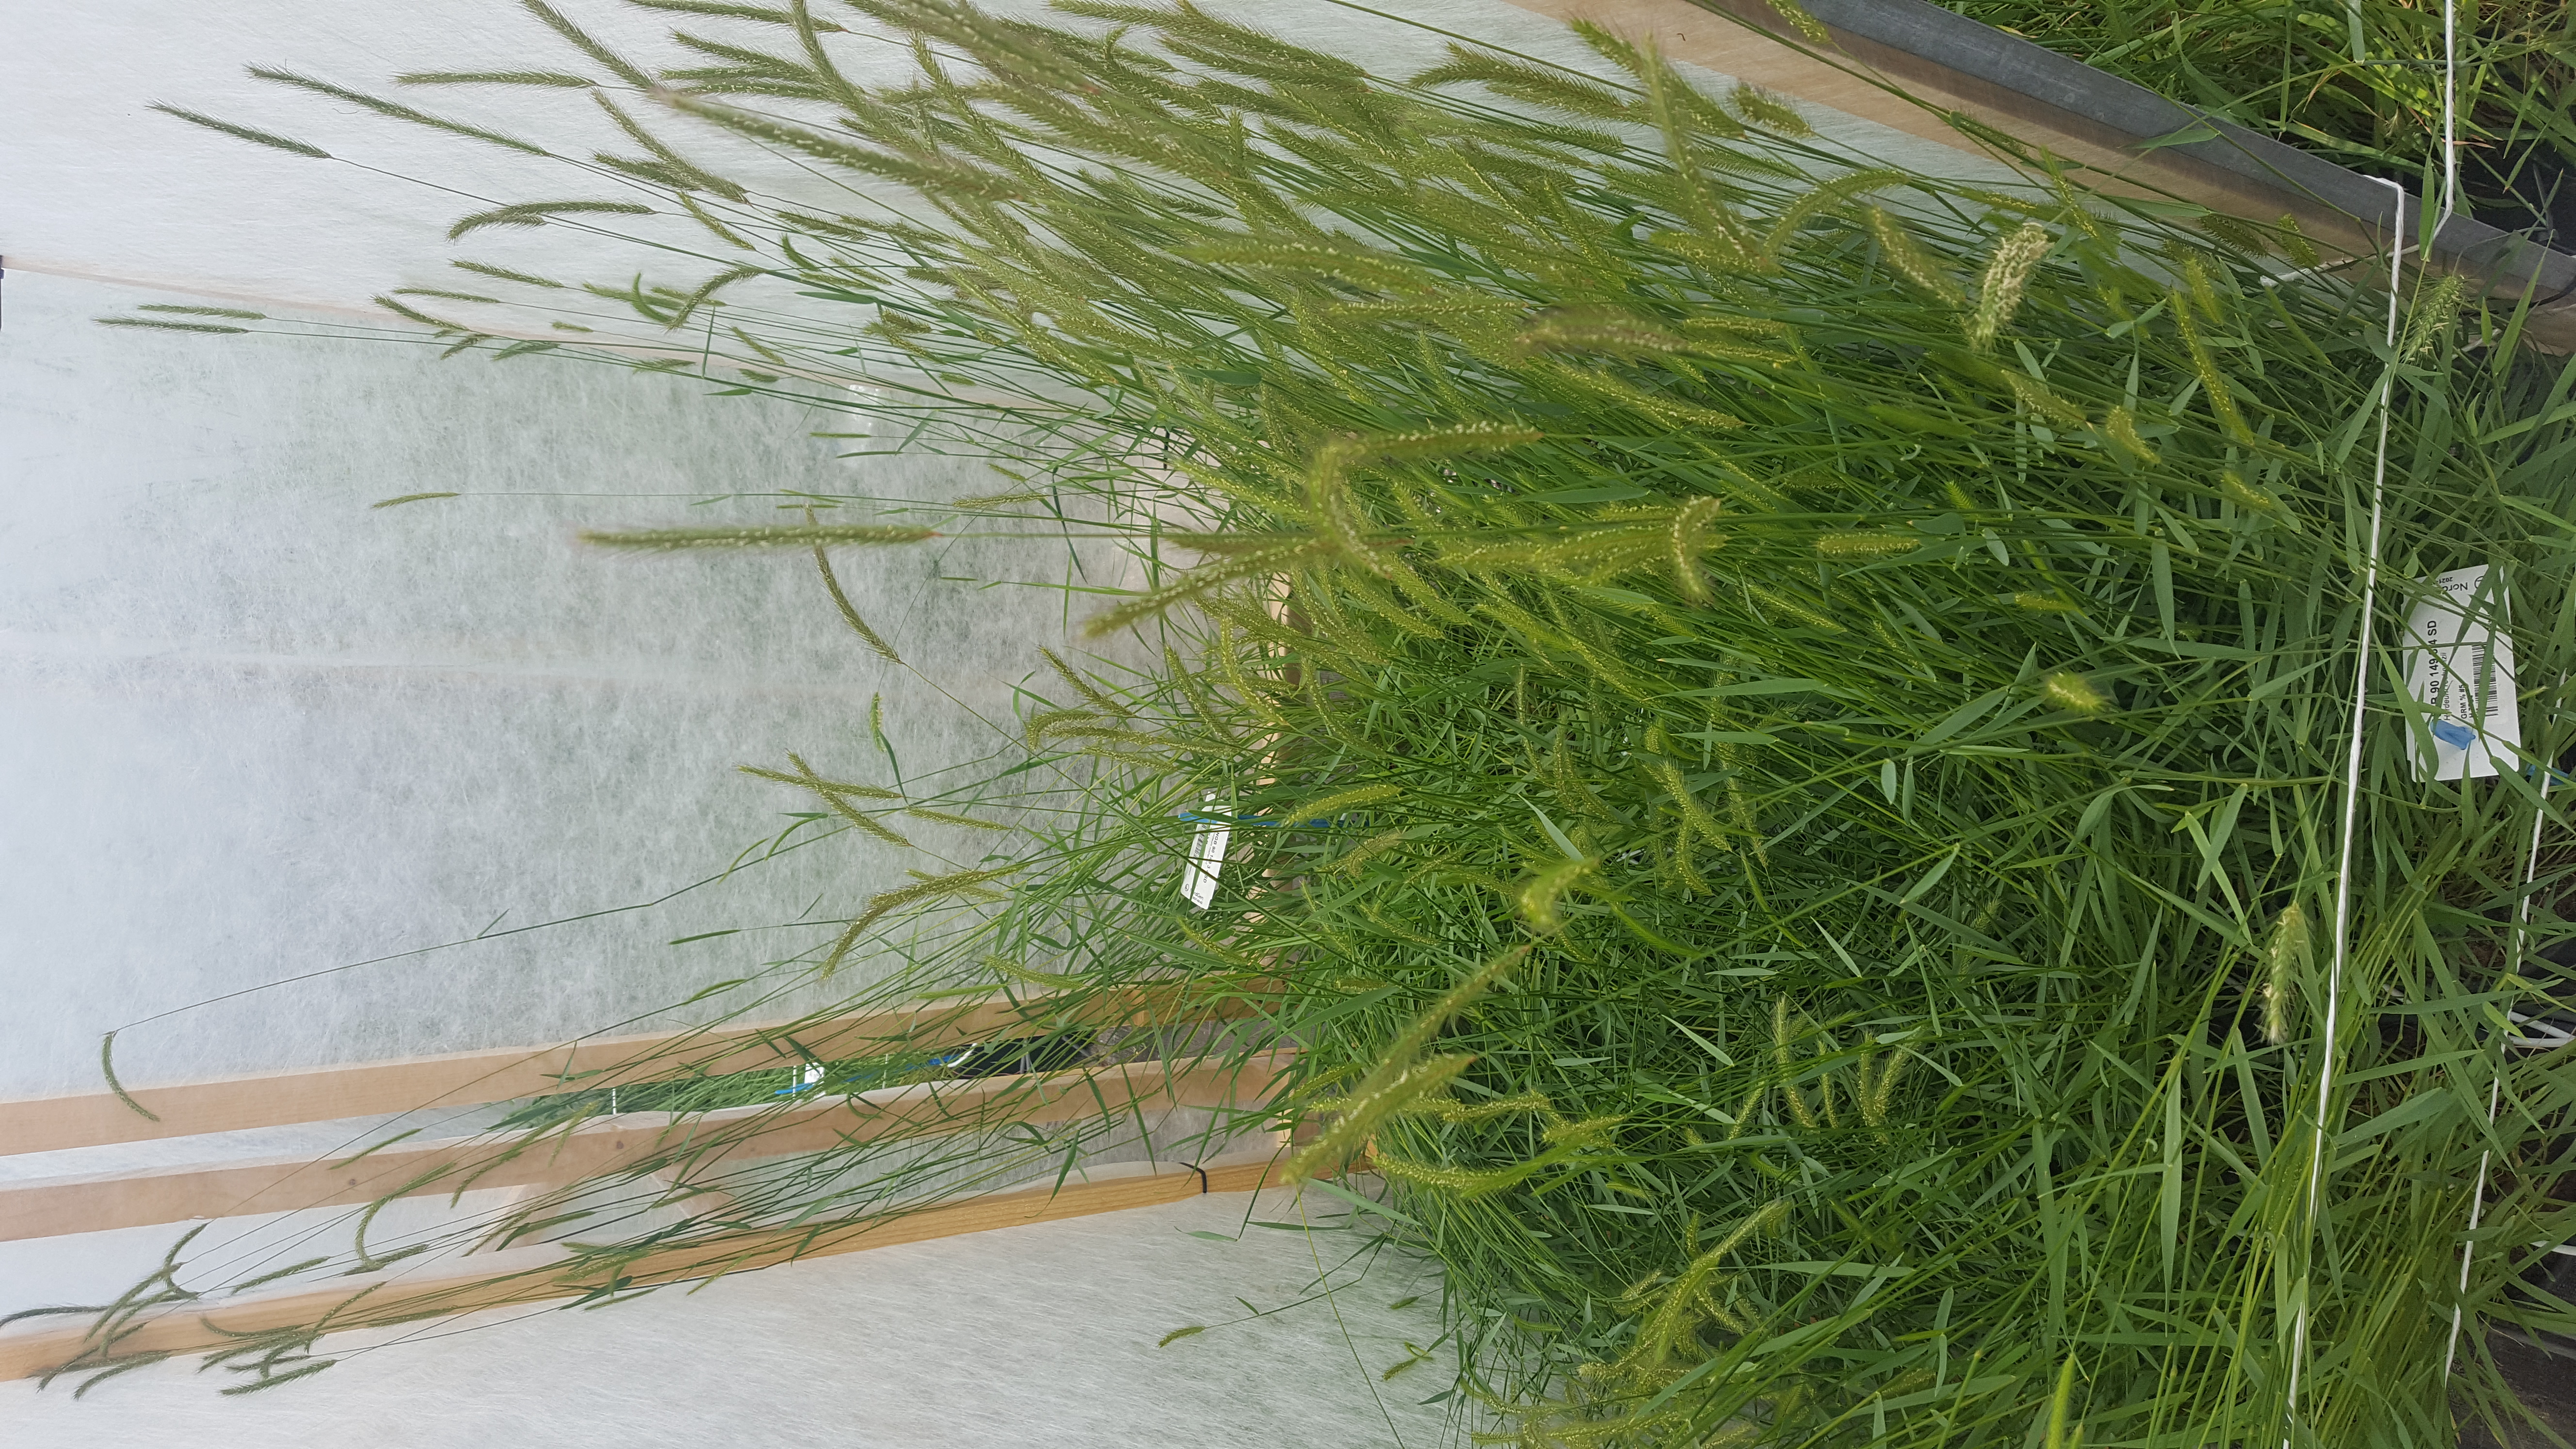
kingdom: Plantae
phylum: Tracheophyta
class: Liliopsida
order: Poales
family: Poaceae
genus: Hordeum
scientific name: Hordeum roshevitzii
